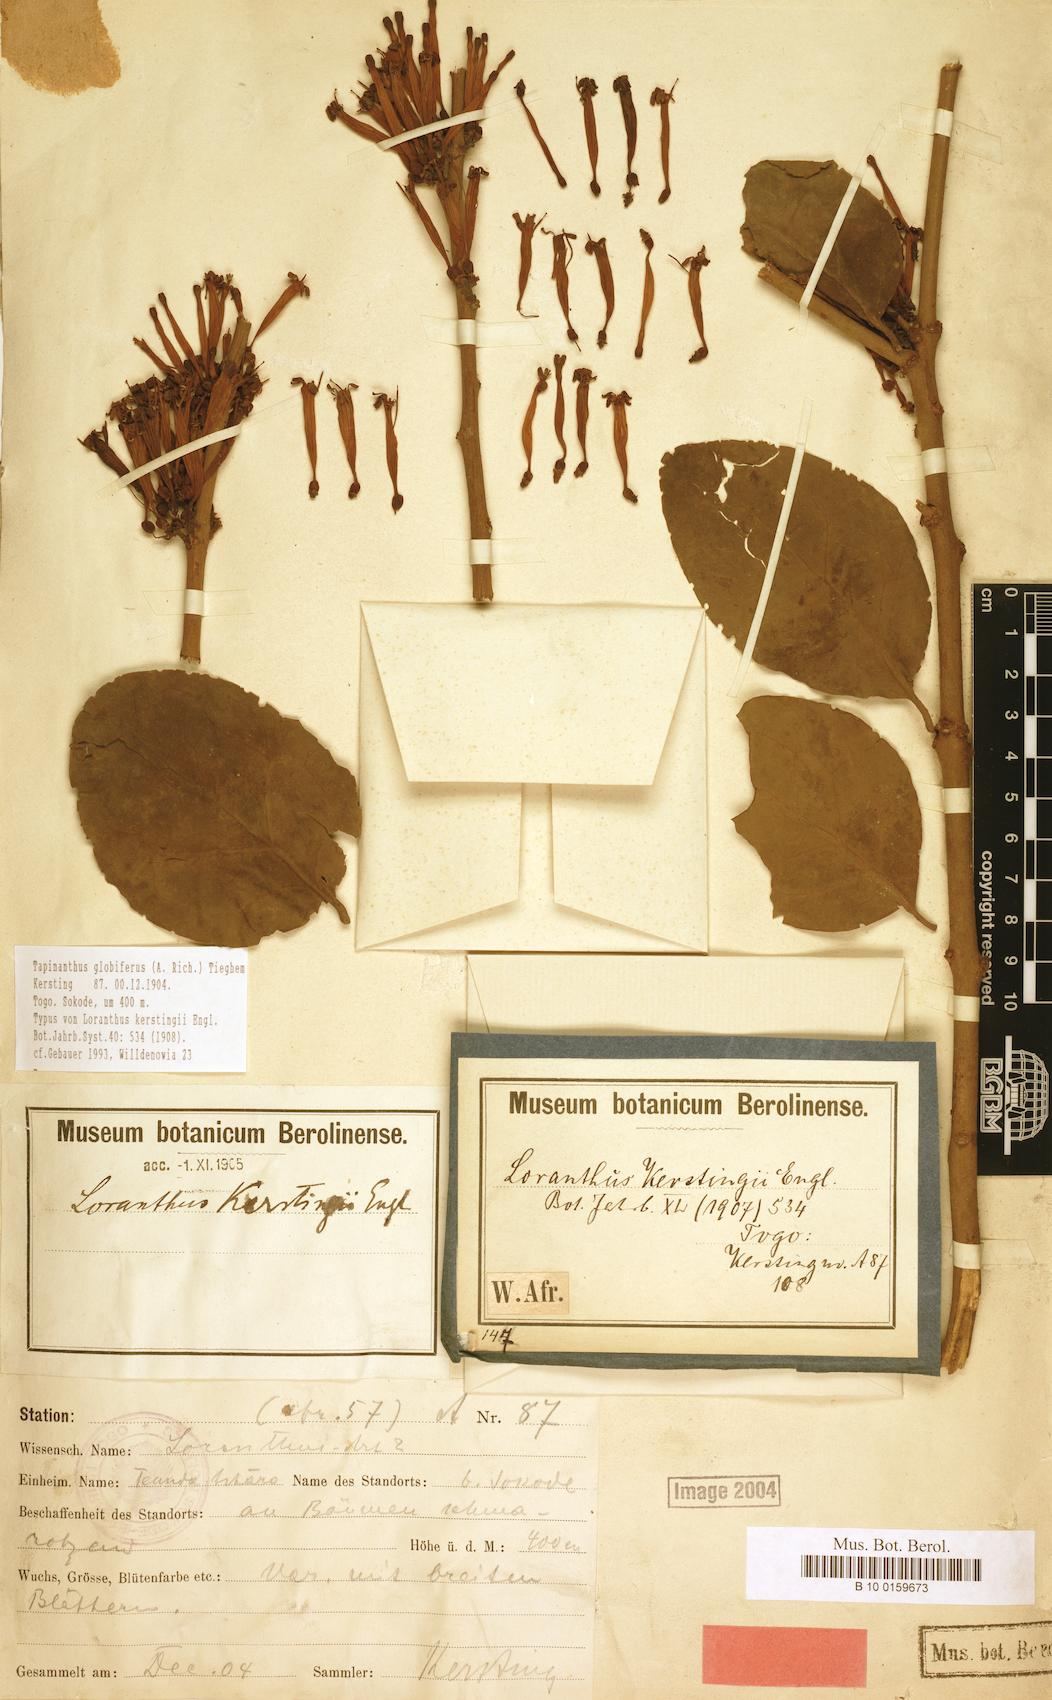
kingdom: Plantae
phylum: Tracheophyta
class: Magnoliopsida
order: Santalales
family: Loranthaceae
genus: Tapinanthus
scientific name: Tapinanthus globiferus
